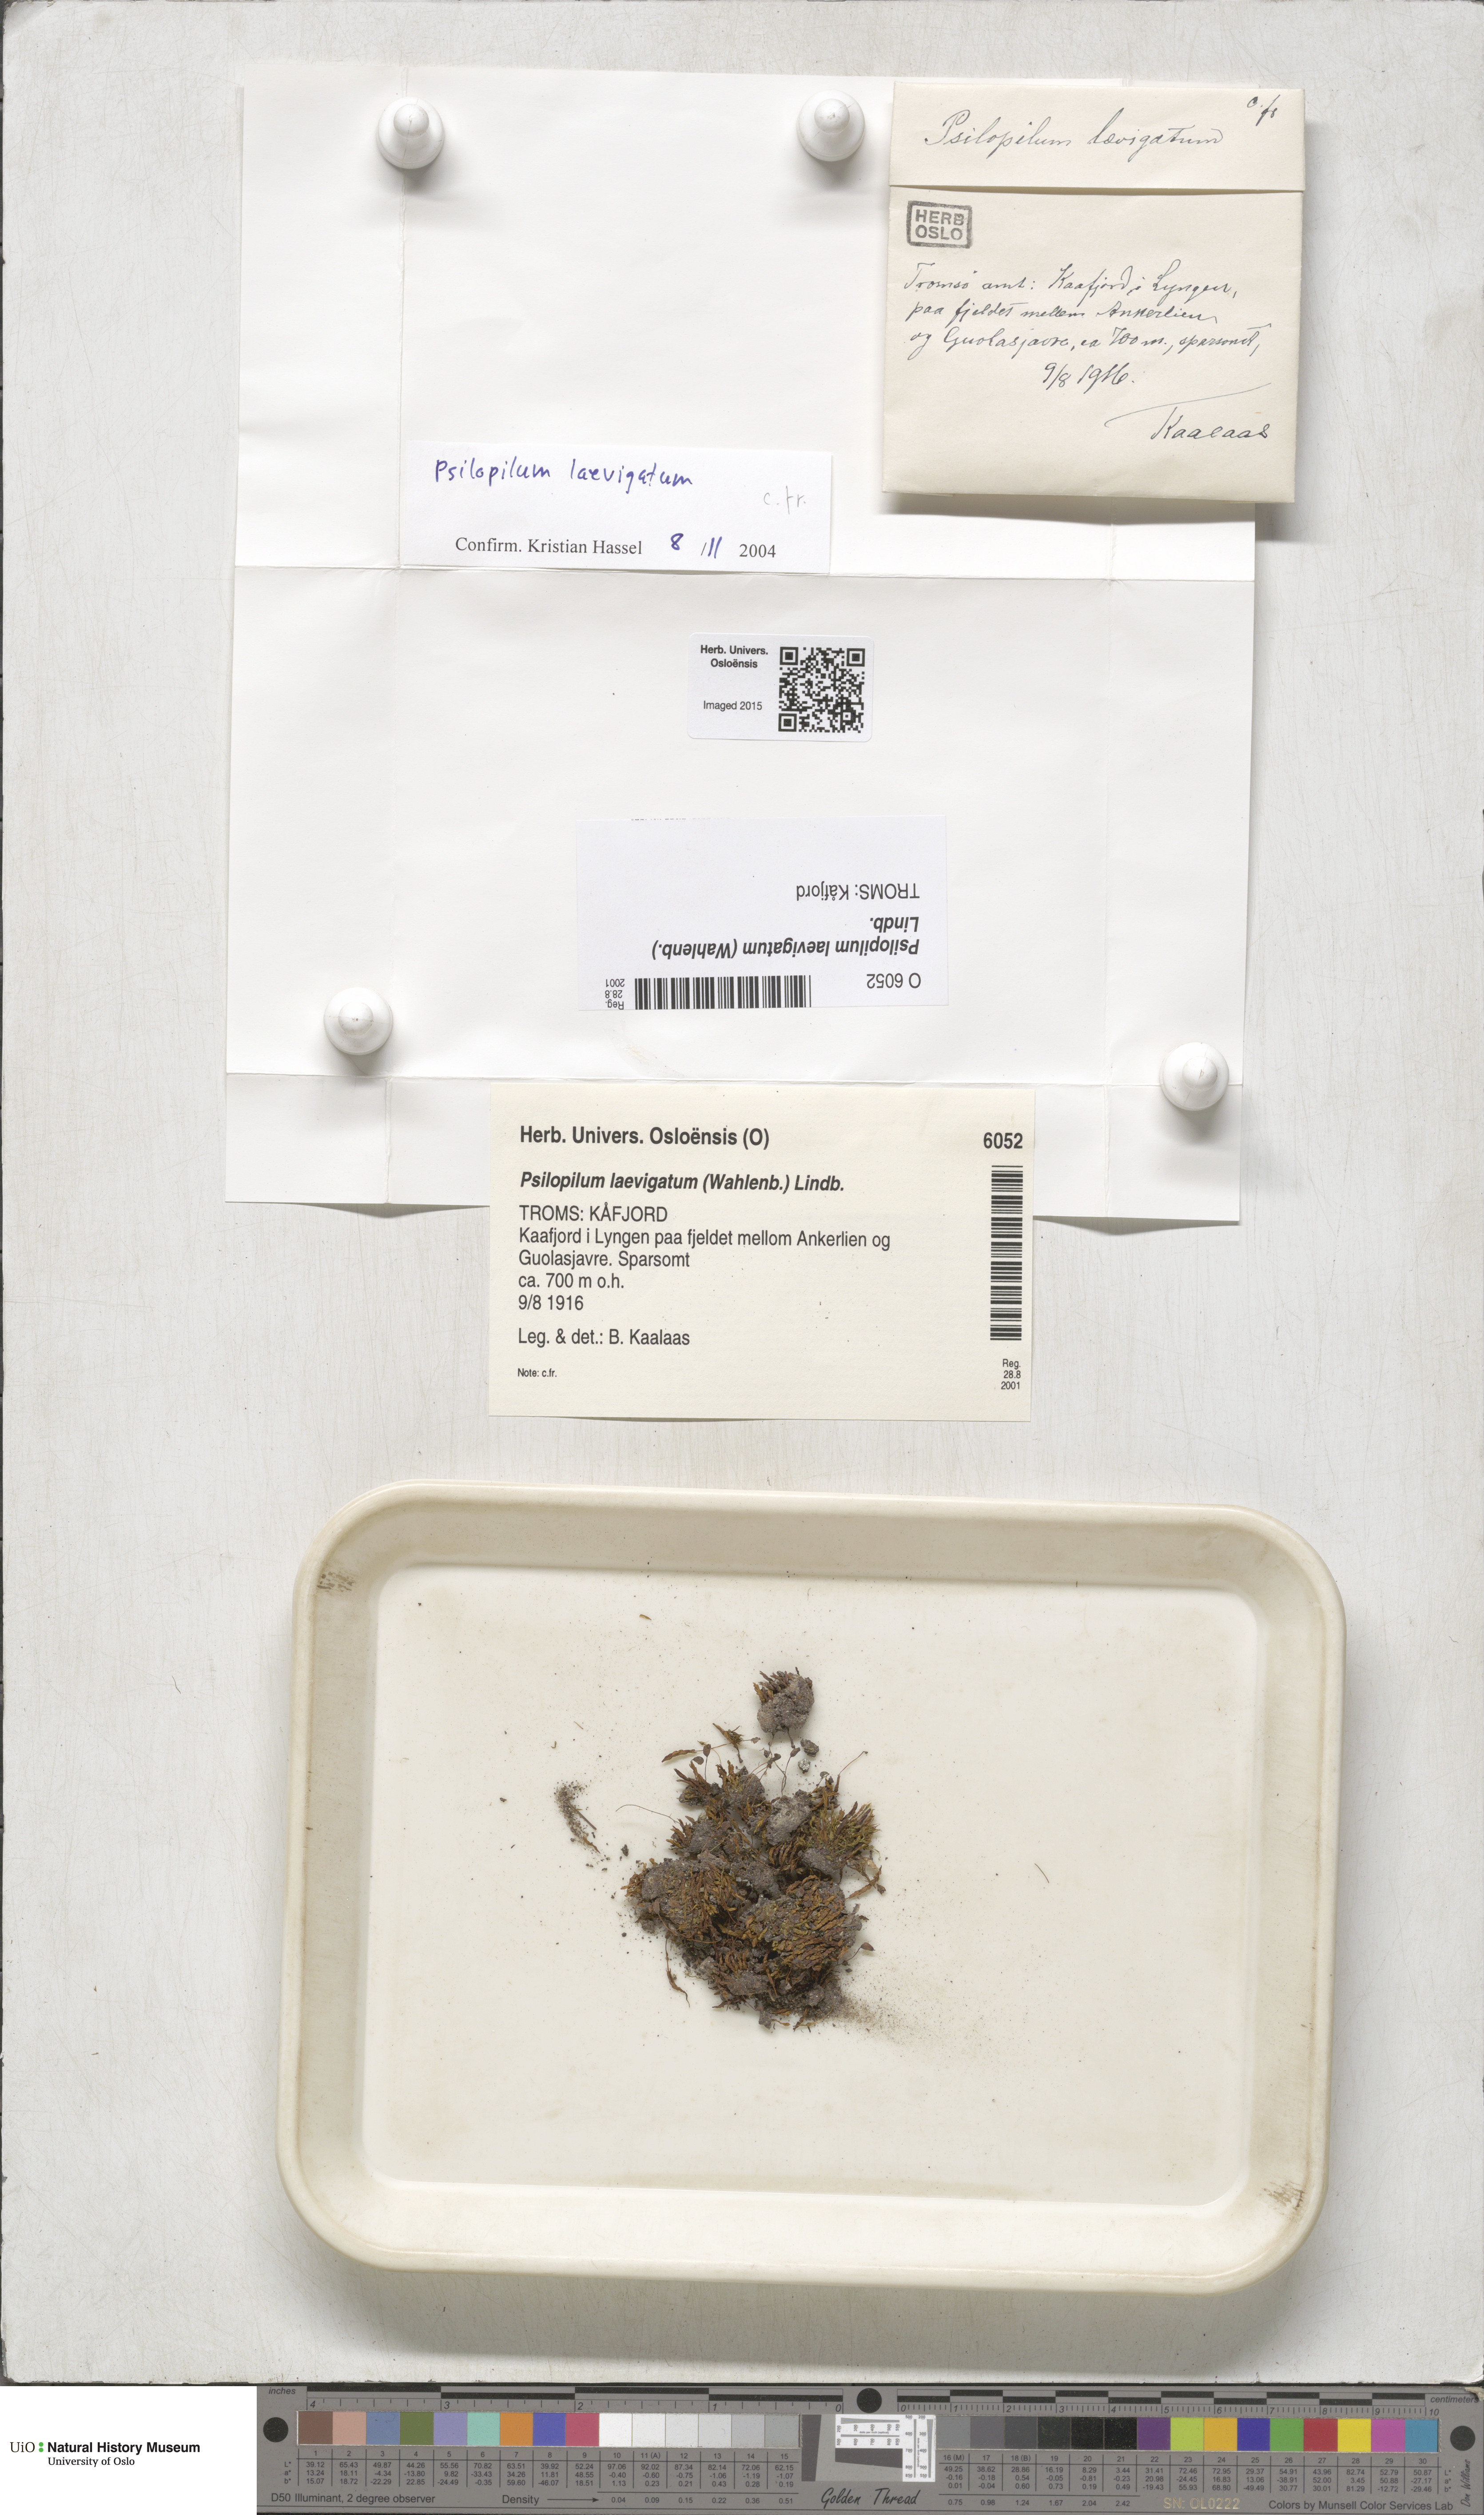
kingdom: Plantae
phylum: Bryophyta
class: Polytrichopsida
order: Polytrichales
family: Polytrichaceae
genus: Psilopilum
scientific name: Psilopilum laevigatum
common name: Large wolverine moss
